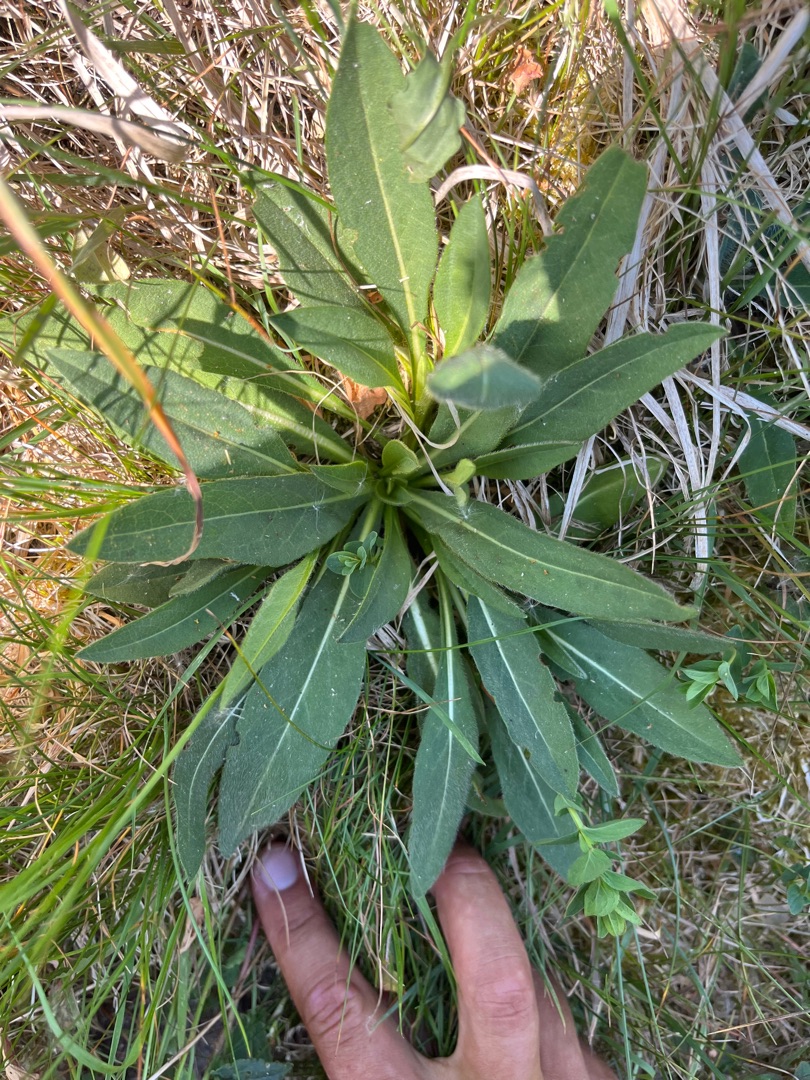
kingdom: Plantae
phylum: Tracheophyta
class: Magnoliopsida
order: Dipsacales
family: Caprifoliaceae
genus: Succisa
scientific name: Succisa pratensis
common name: Djævelsbid
